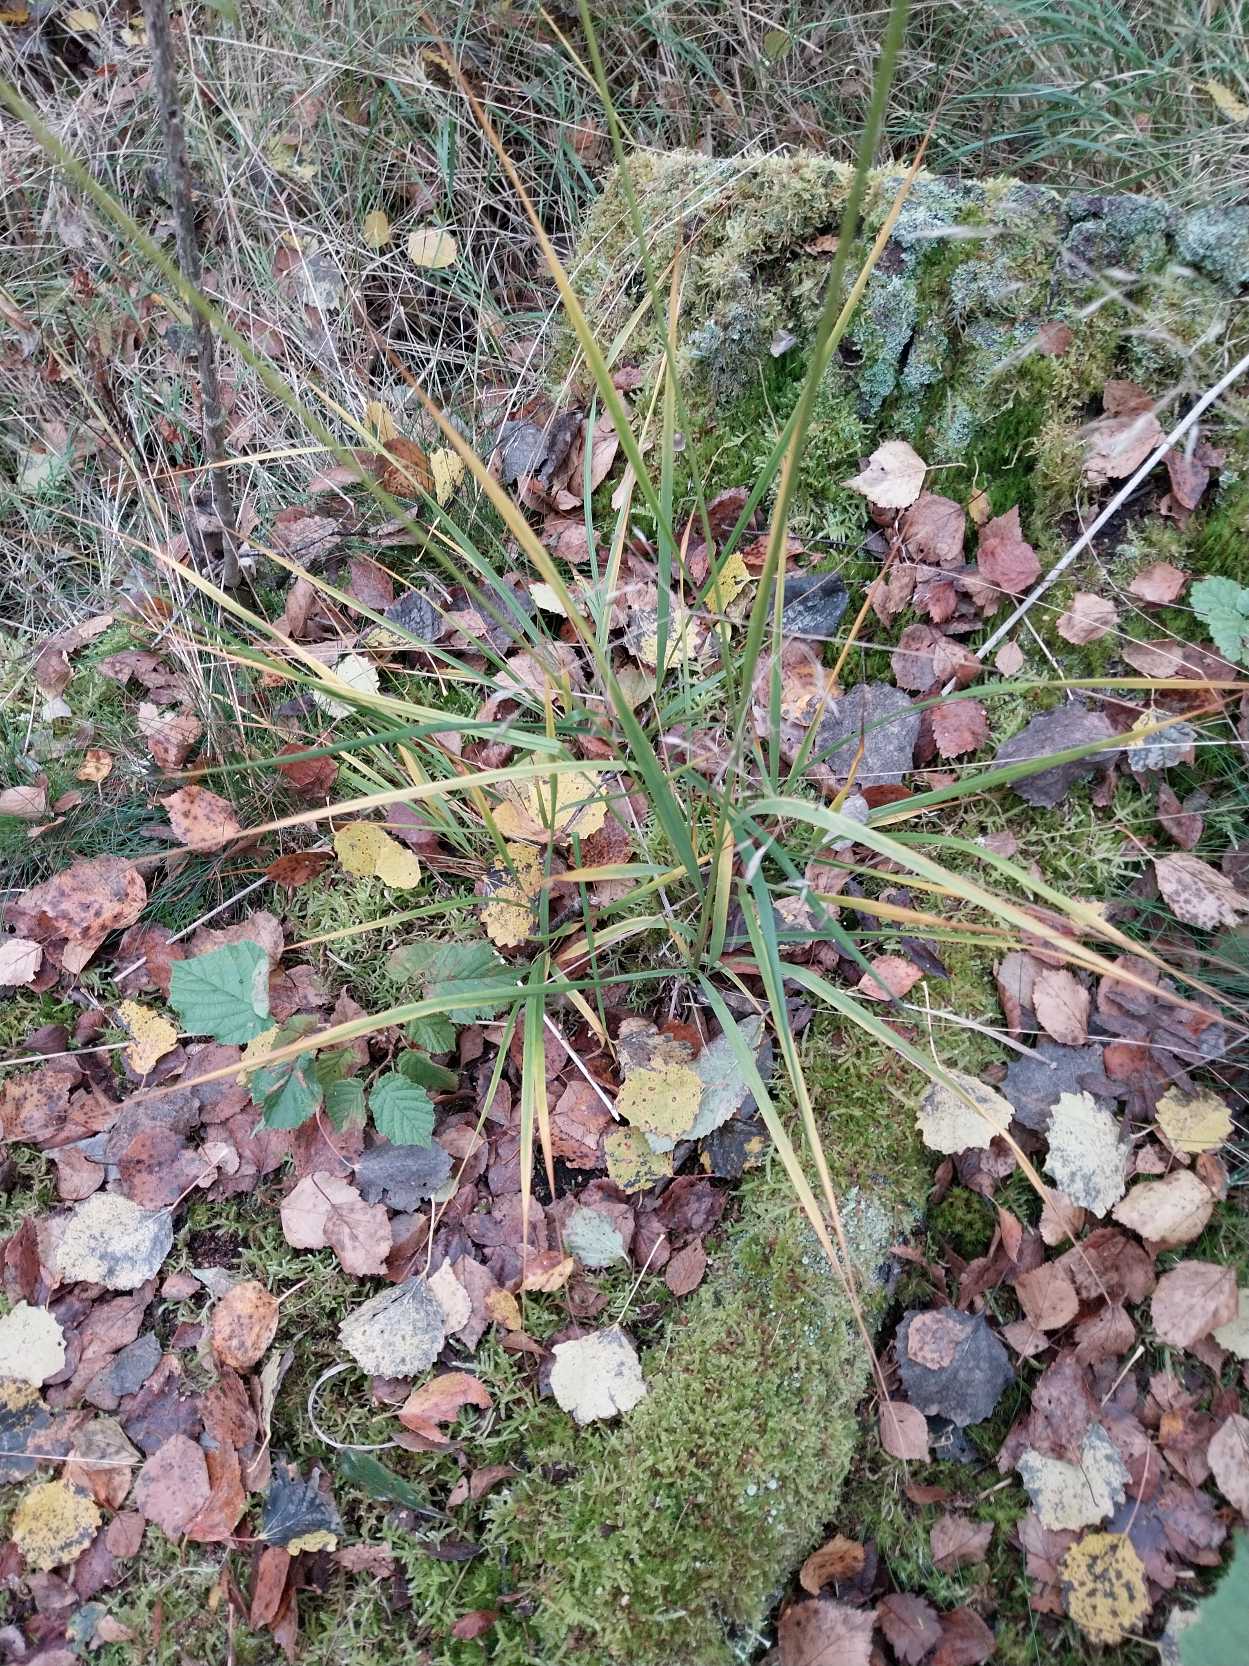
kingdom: Plantae
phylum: Tracheophyta
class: Liliopsida
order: Poales
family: Poaceae
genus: Molinia
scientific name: Molinia caerulea
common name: Blåtop
